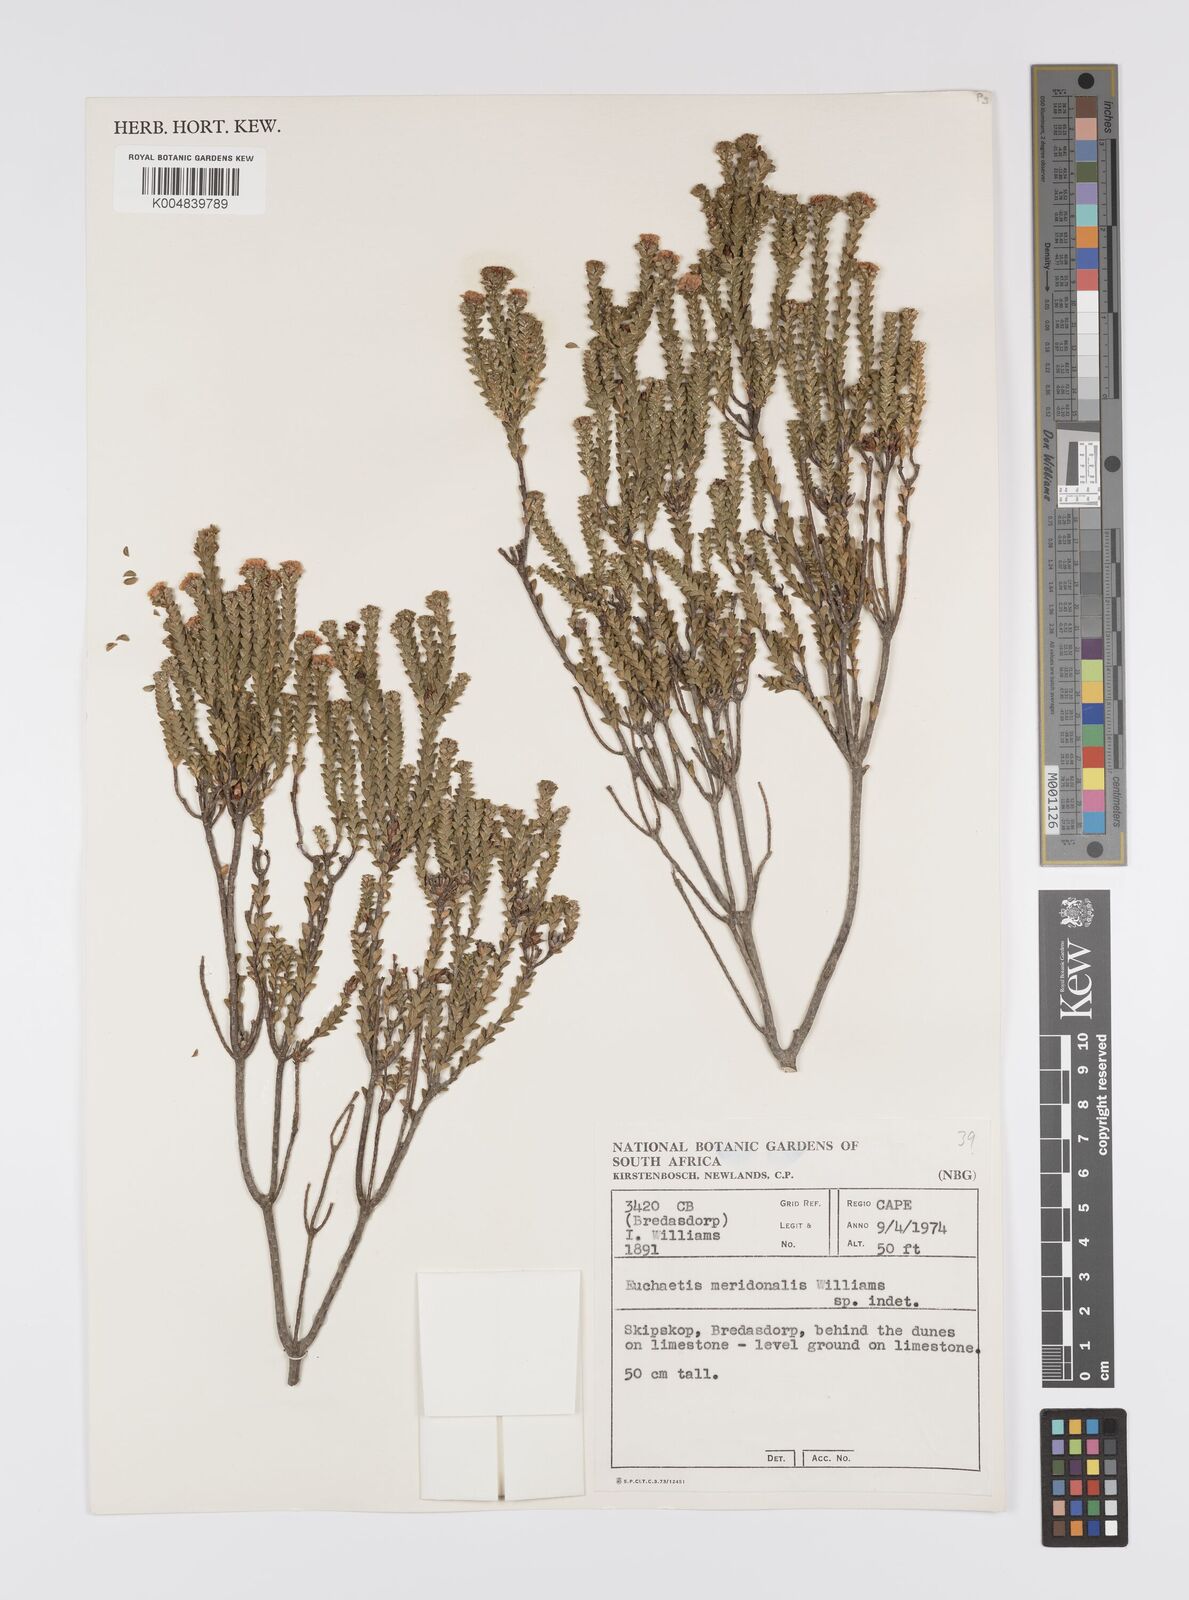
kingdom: Plantae
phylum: Tracheophyta
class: Magnoliopsida
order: Sapindales
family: Rutaceae
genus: Euchaetis
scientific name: Euchaetis meridionalis
